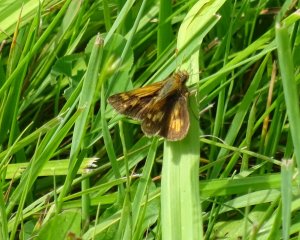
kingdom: Animalia
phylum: Arthropoda
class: Insecta
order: Lepidoptera
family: Hesperiidae
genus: Polites
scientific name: Polites themistocles
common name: Tawny-edged Skipper
